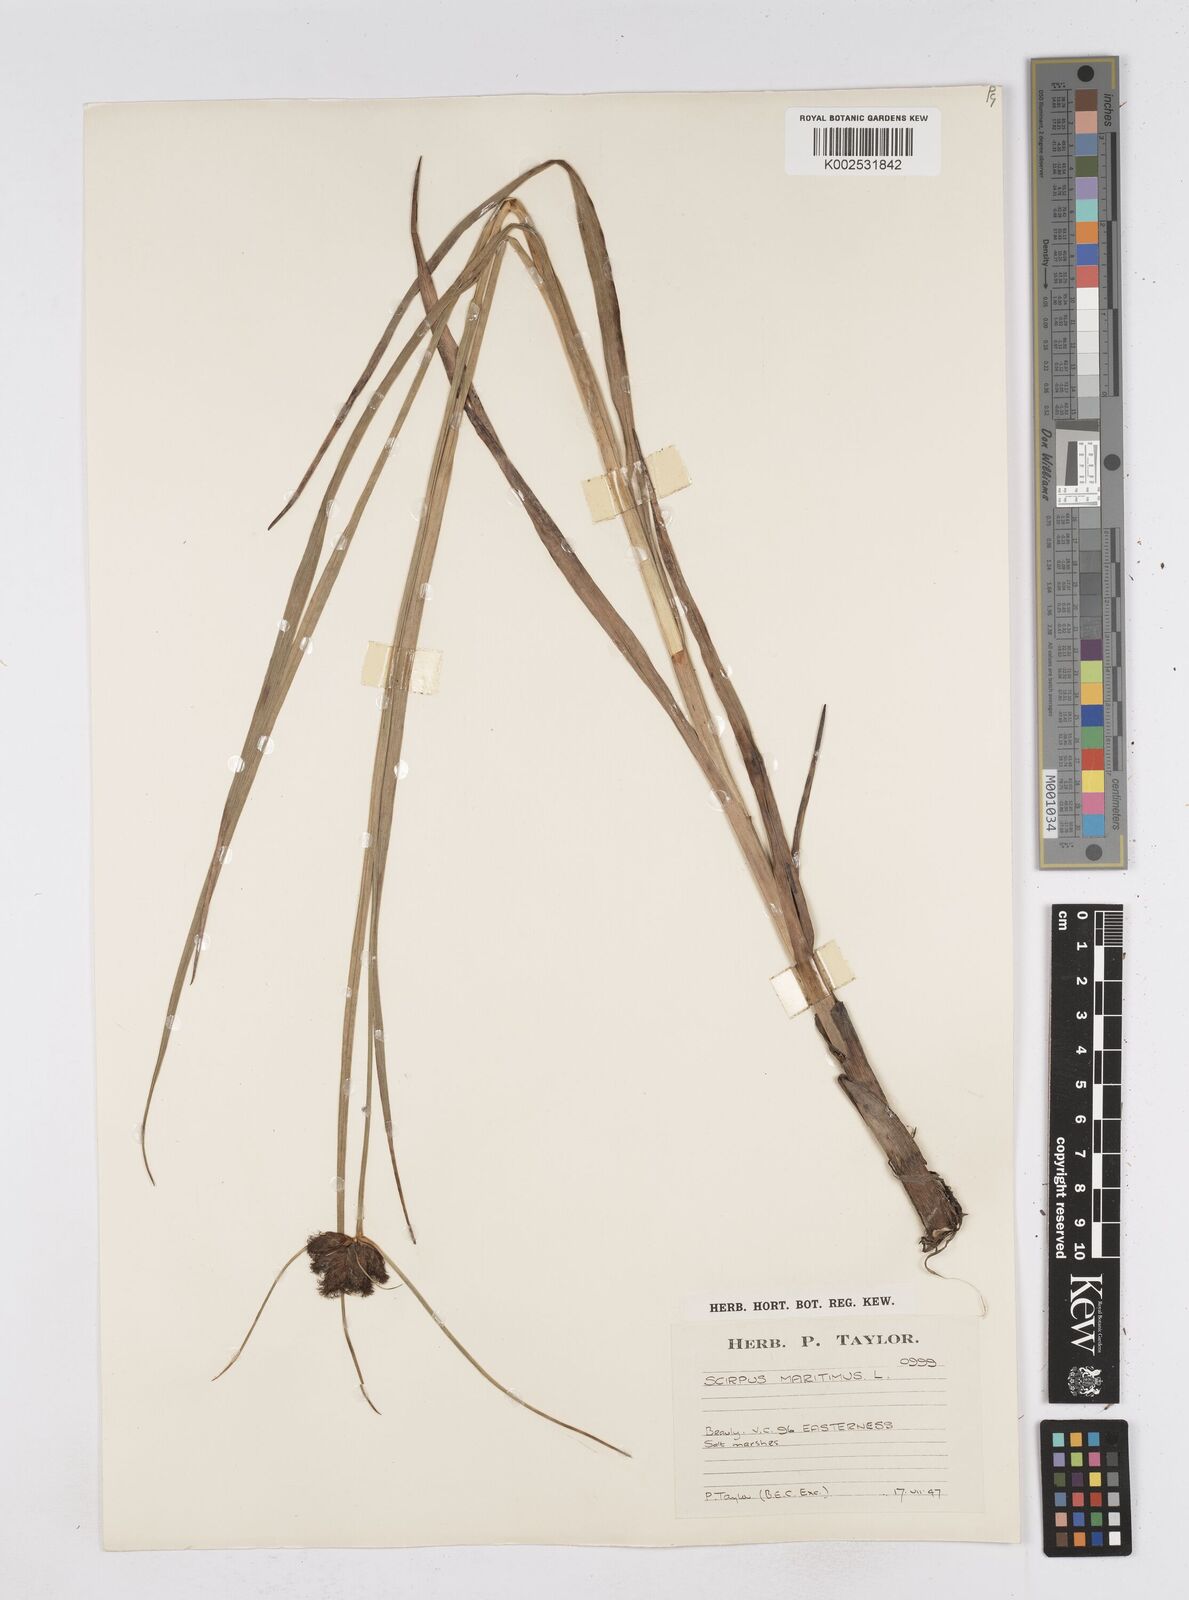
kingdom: Plantae
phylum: Tracheophyta
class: Liliopsida
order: Poales
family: Cyperaceae
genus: Bolboschoenus
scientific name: Bolboschoenus maritimus
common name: Sea club-rush
